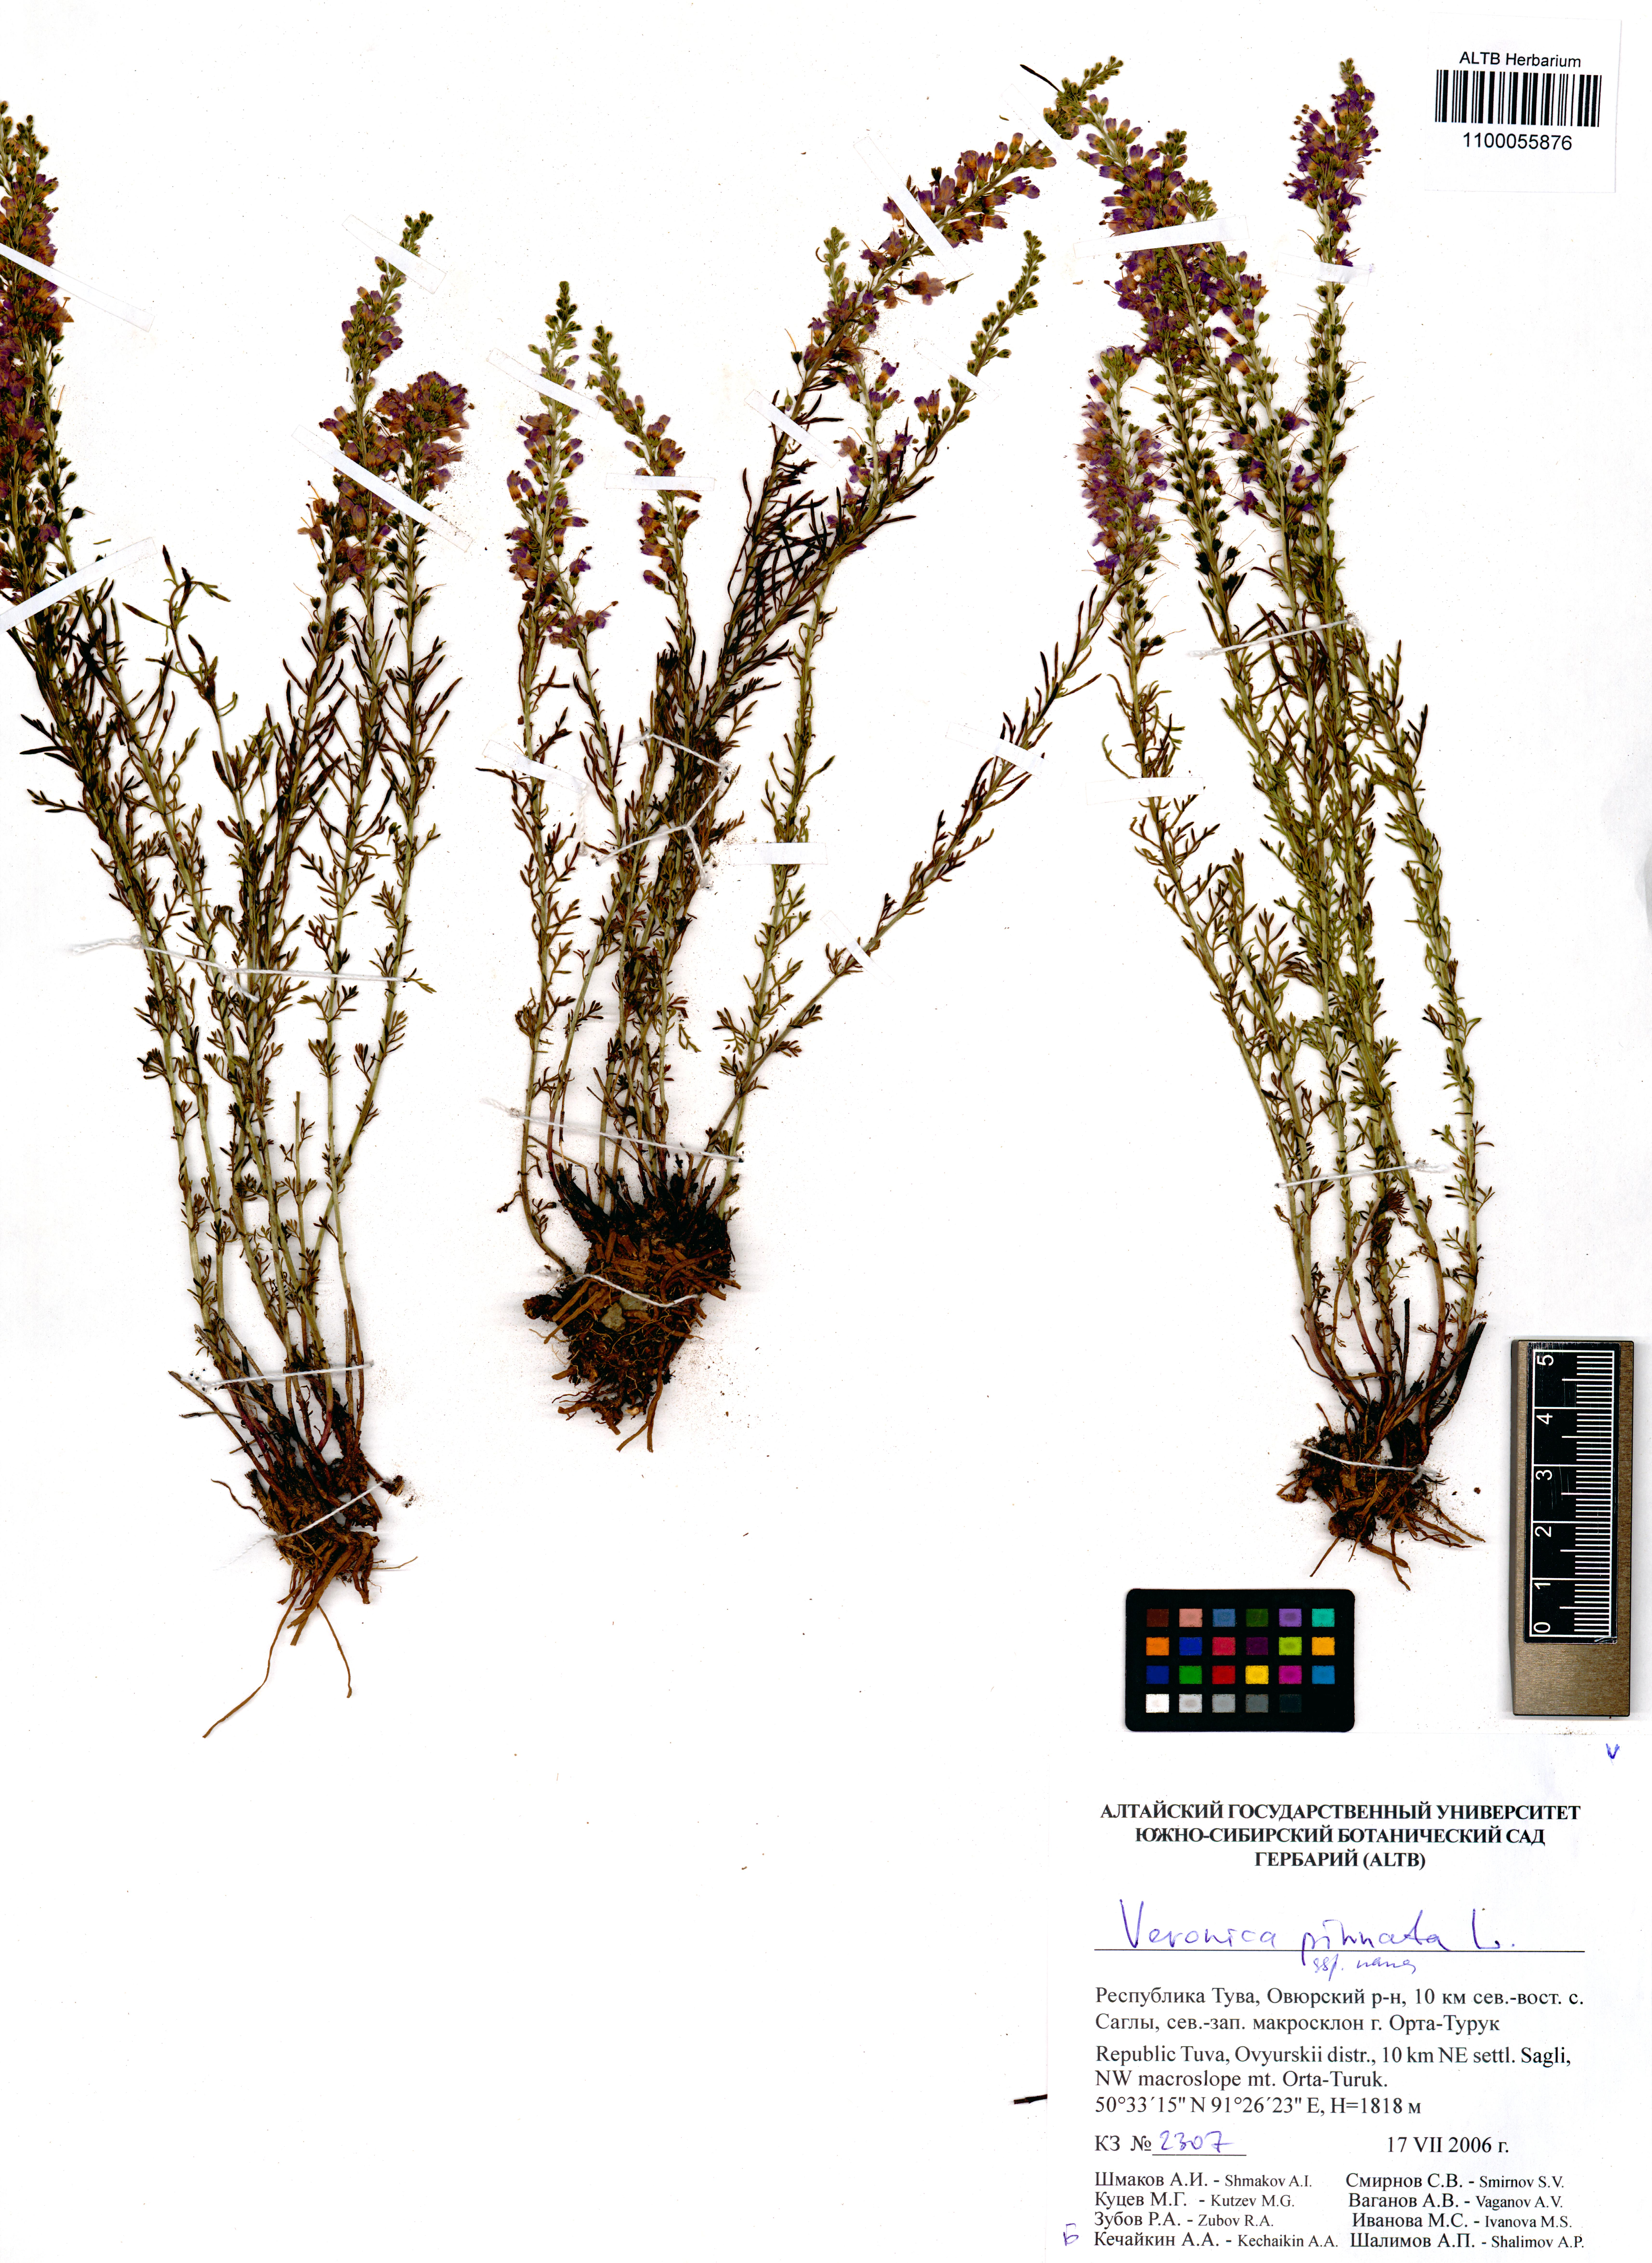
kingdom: Plantae
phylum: Tracheophyta
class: Magnoliopsida
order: Lamiales
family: Plantaginaceae
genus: Veronica
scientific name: Veronica pinnata
